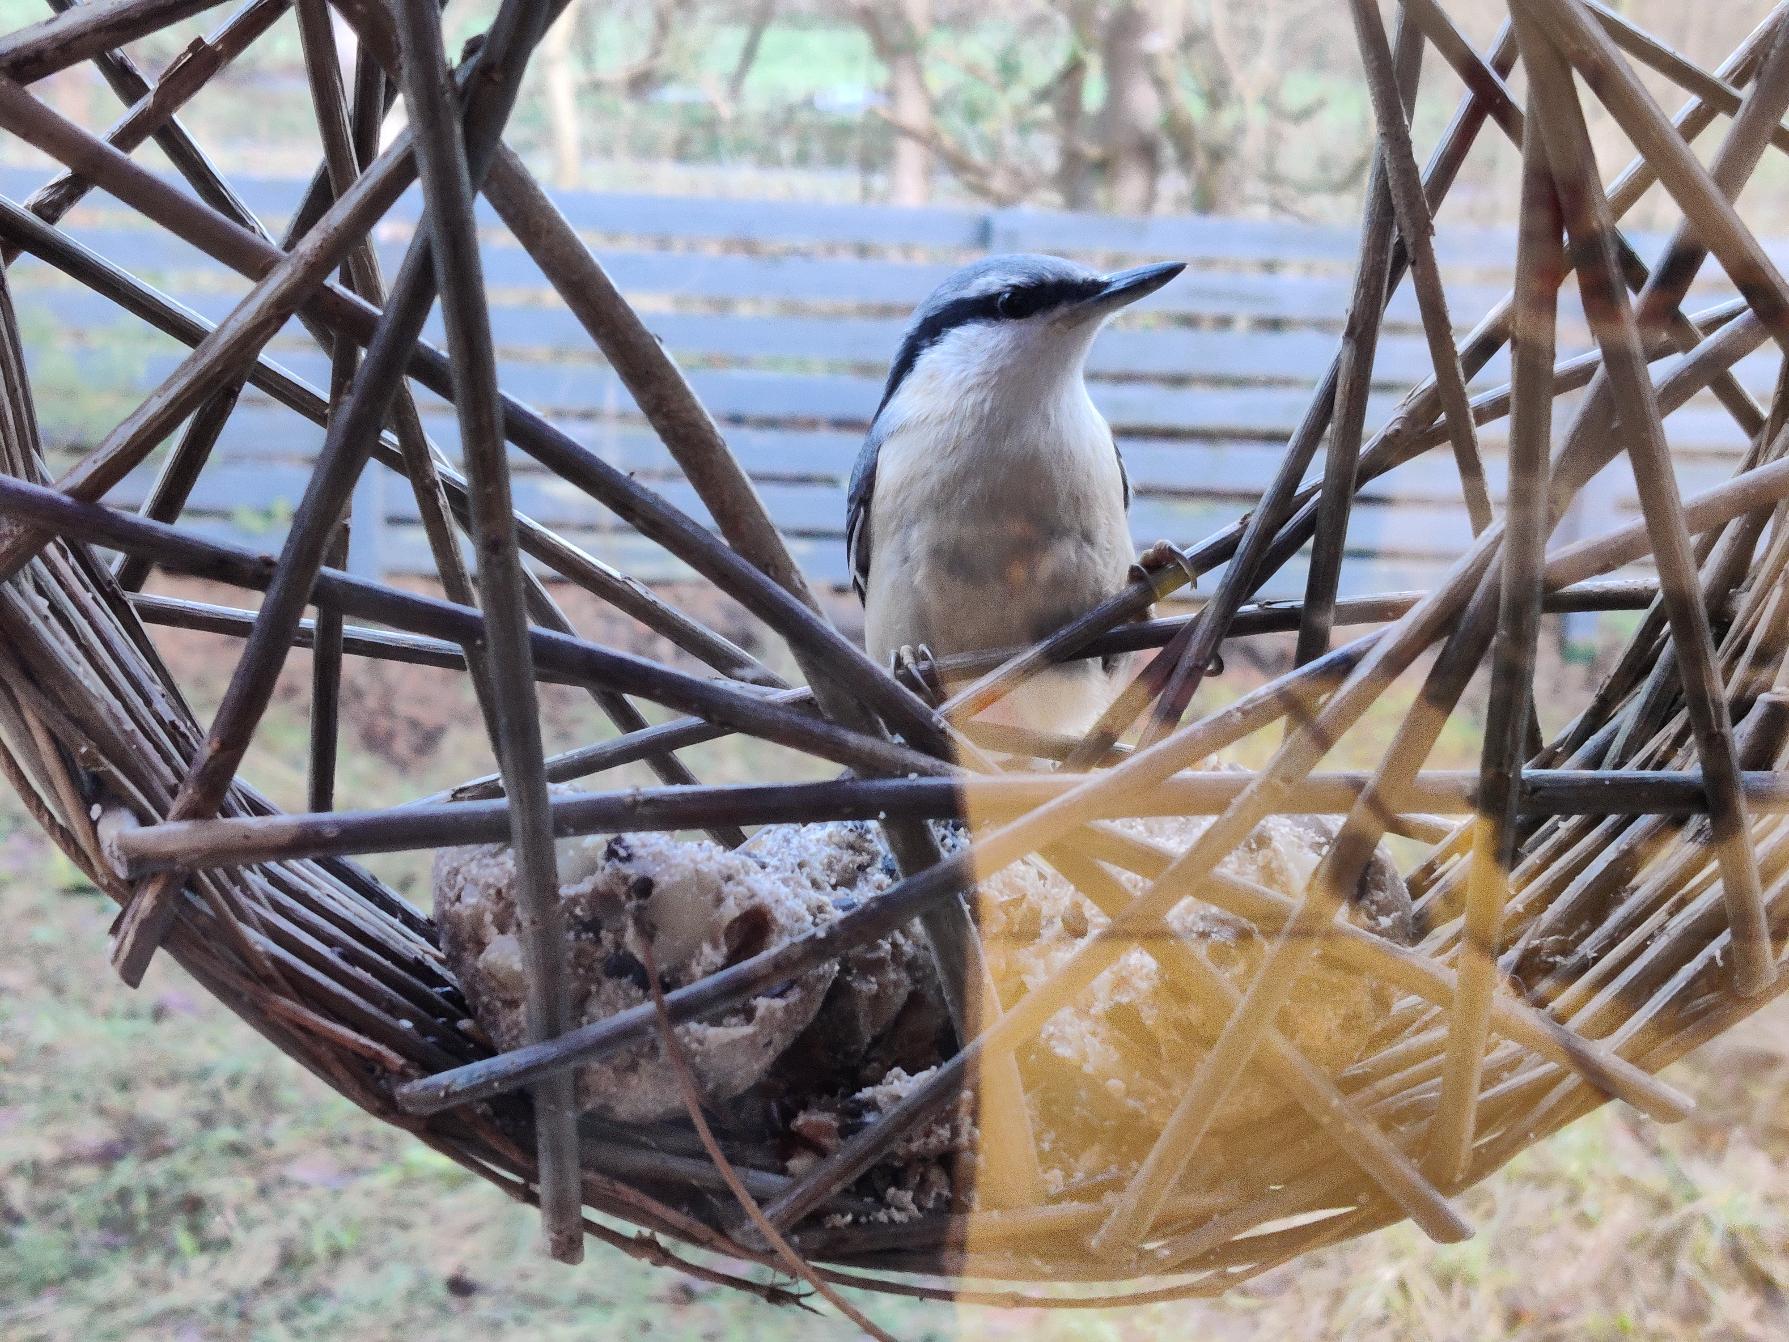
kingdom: Animalia
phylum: Chordata
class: Aves
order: Passeriformes
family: Sittidae
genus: Sitta
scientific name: Sitta europaea
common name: Spætmejse
